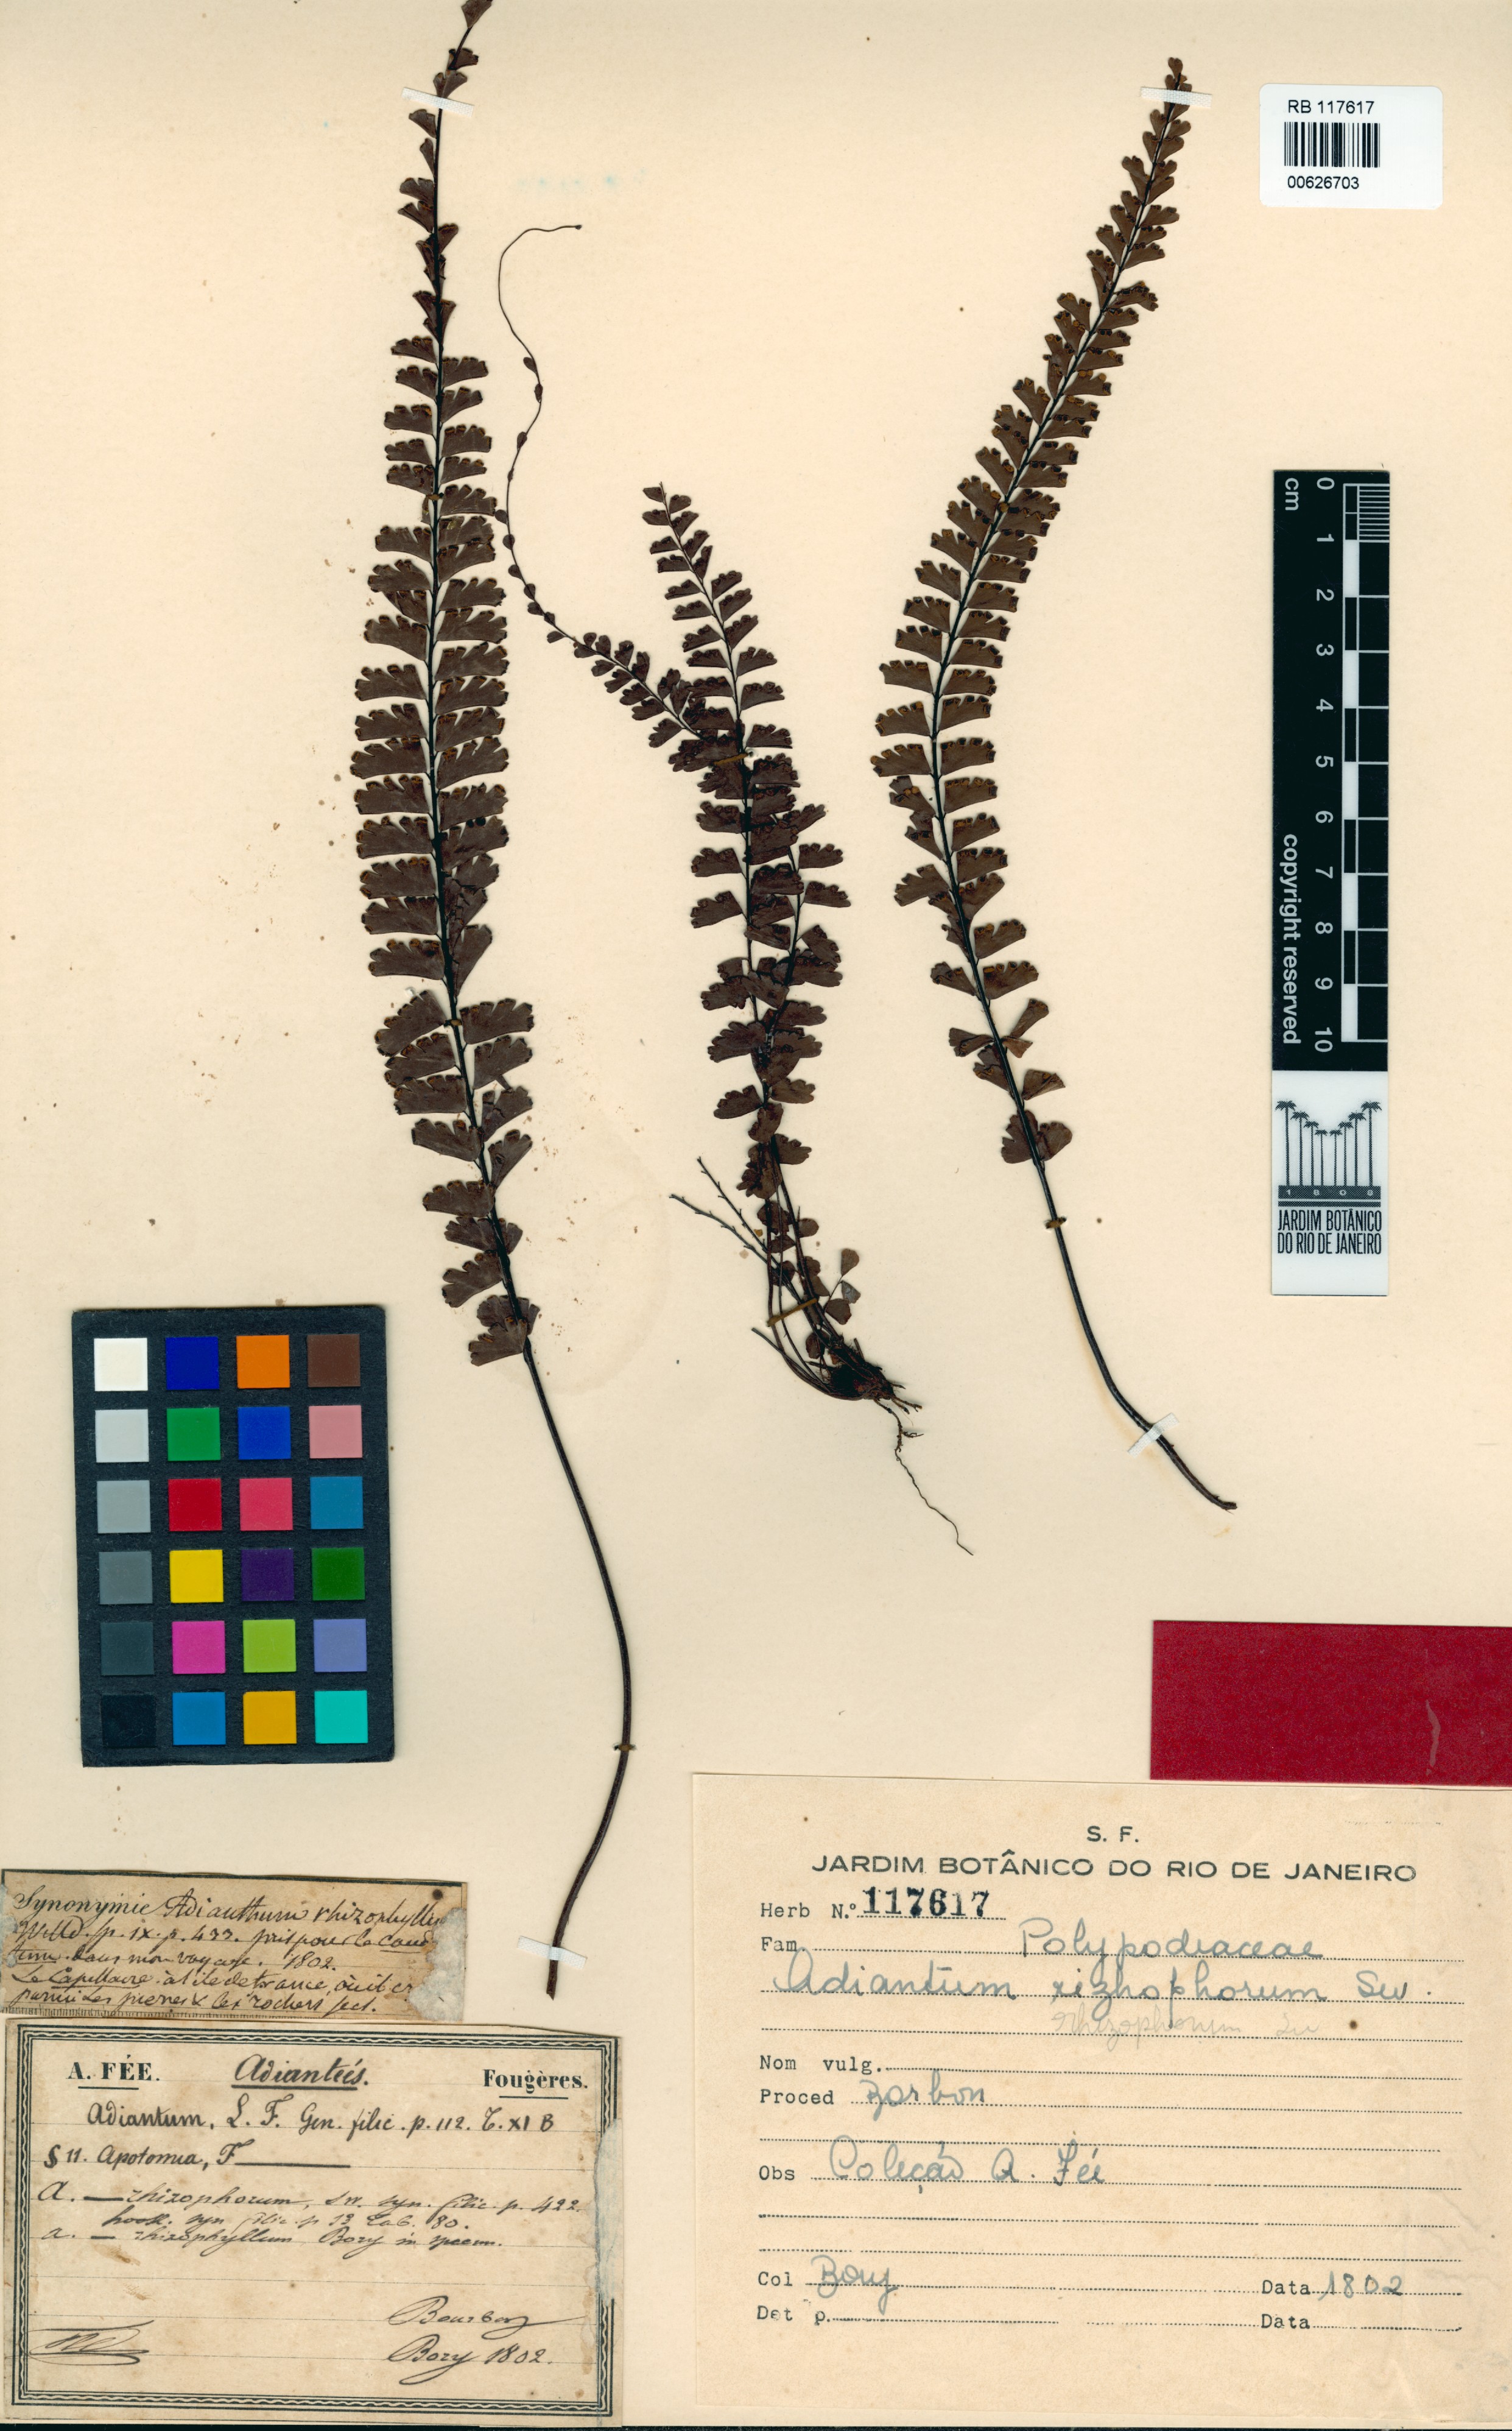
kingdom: Plantae
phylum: Tracheophyta
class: Polypodiopsida
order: Polypodiales
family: Pteridaceae
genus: Adiantum
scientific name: Adiantum rhizophorum
